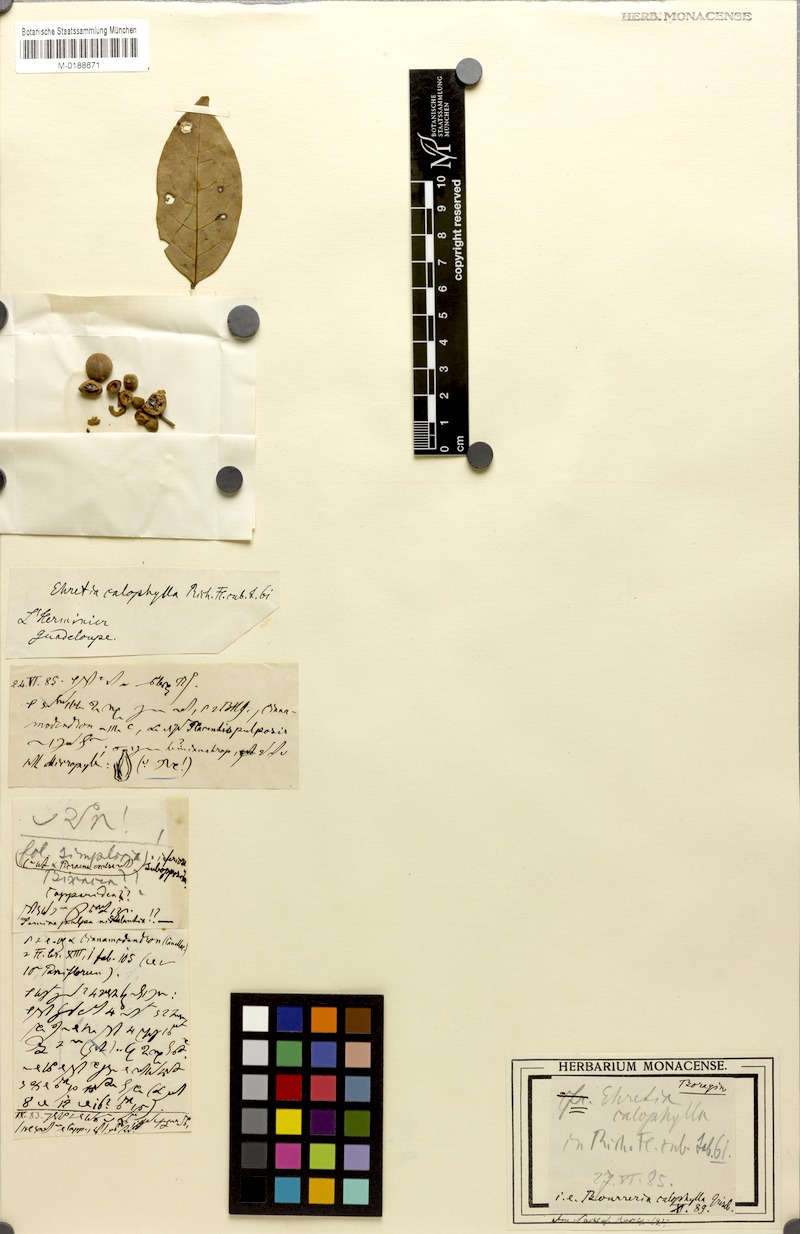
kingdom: Plantae
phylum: Tracheophyta
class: Magnoliopsida
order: Boraginales
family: Ehretiaceae
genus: Bourreria
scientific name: Bourreria calophylla
